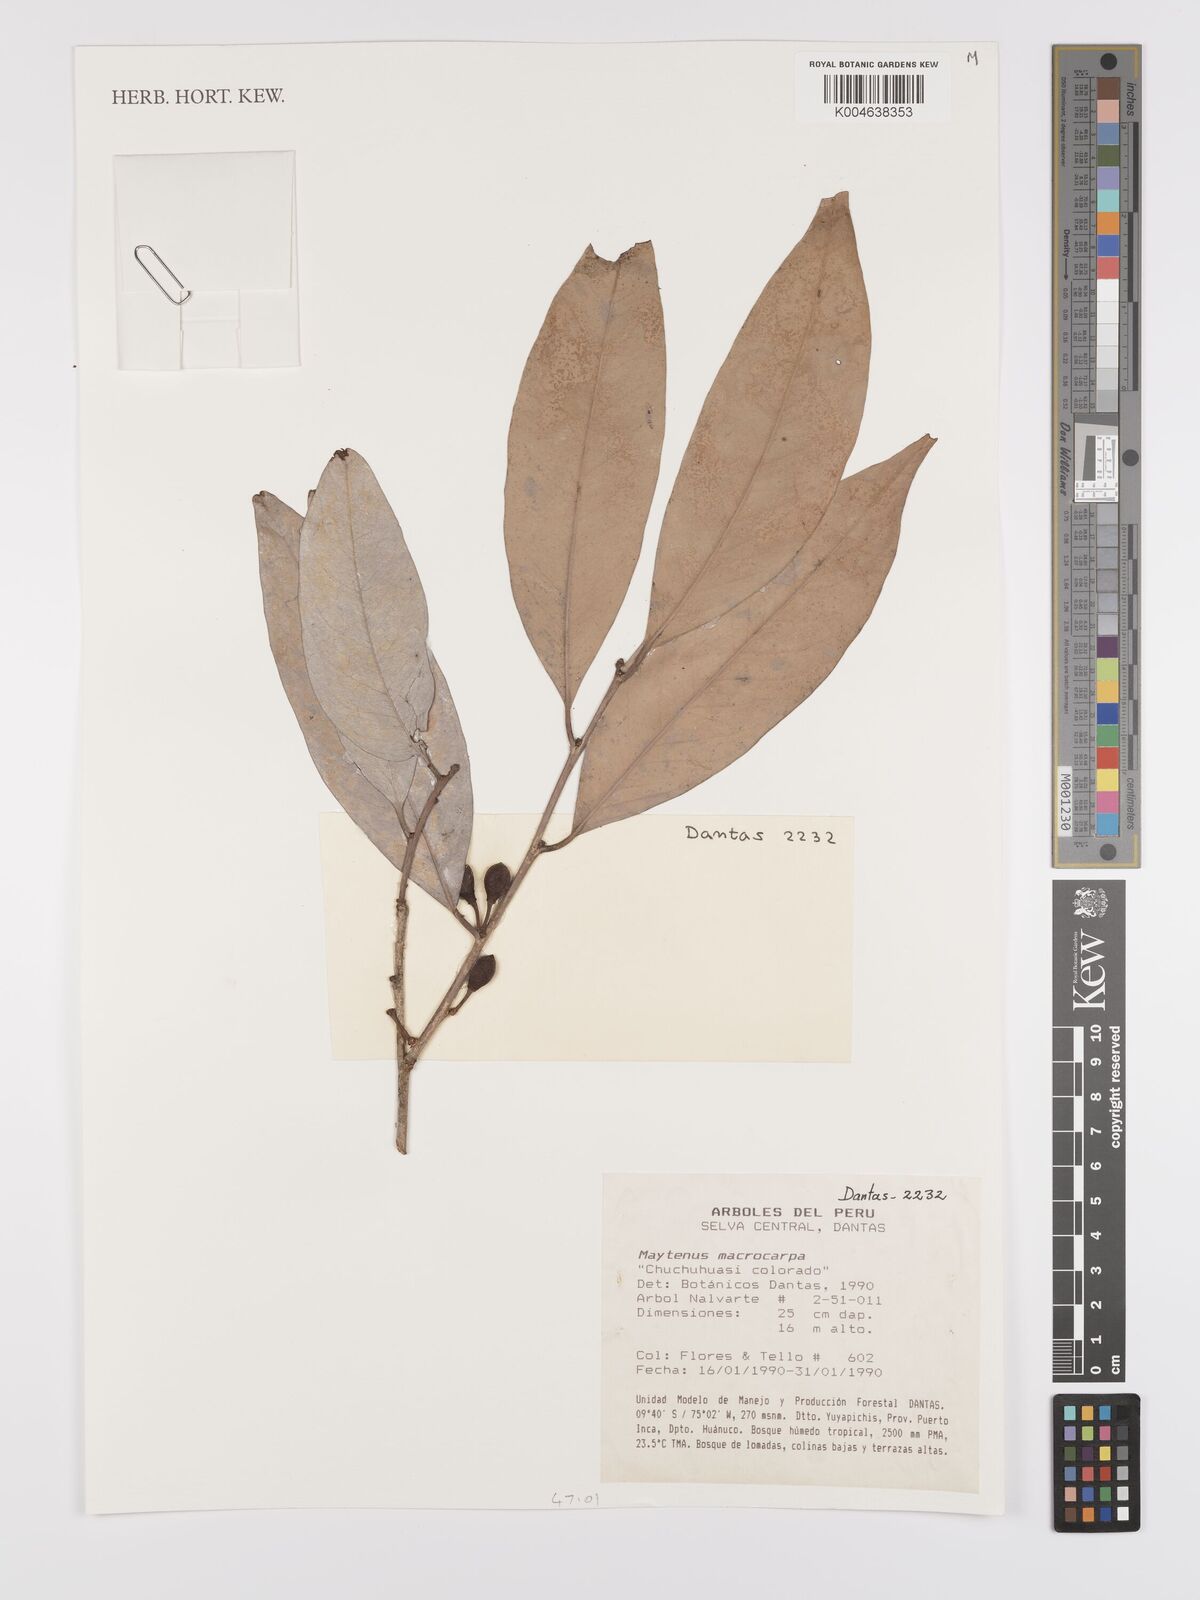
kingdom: Plantae
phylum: Tracheophyta
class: Magnoliopsida
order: Celastrales
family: Celastraceae
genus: Monteverdia
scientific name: Monteverdia macrocarpa
